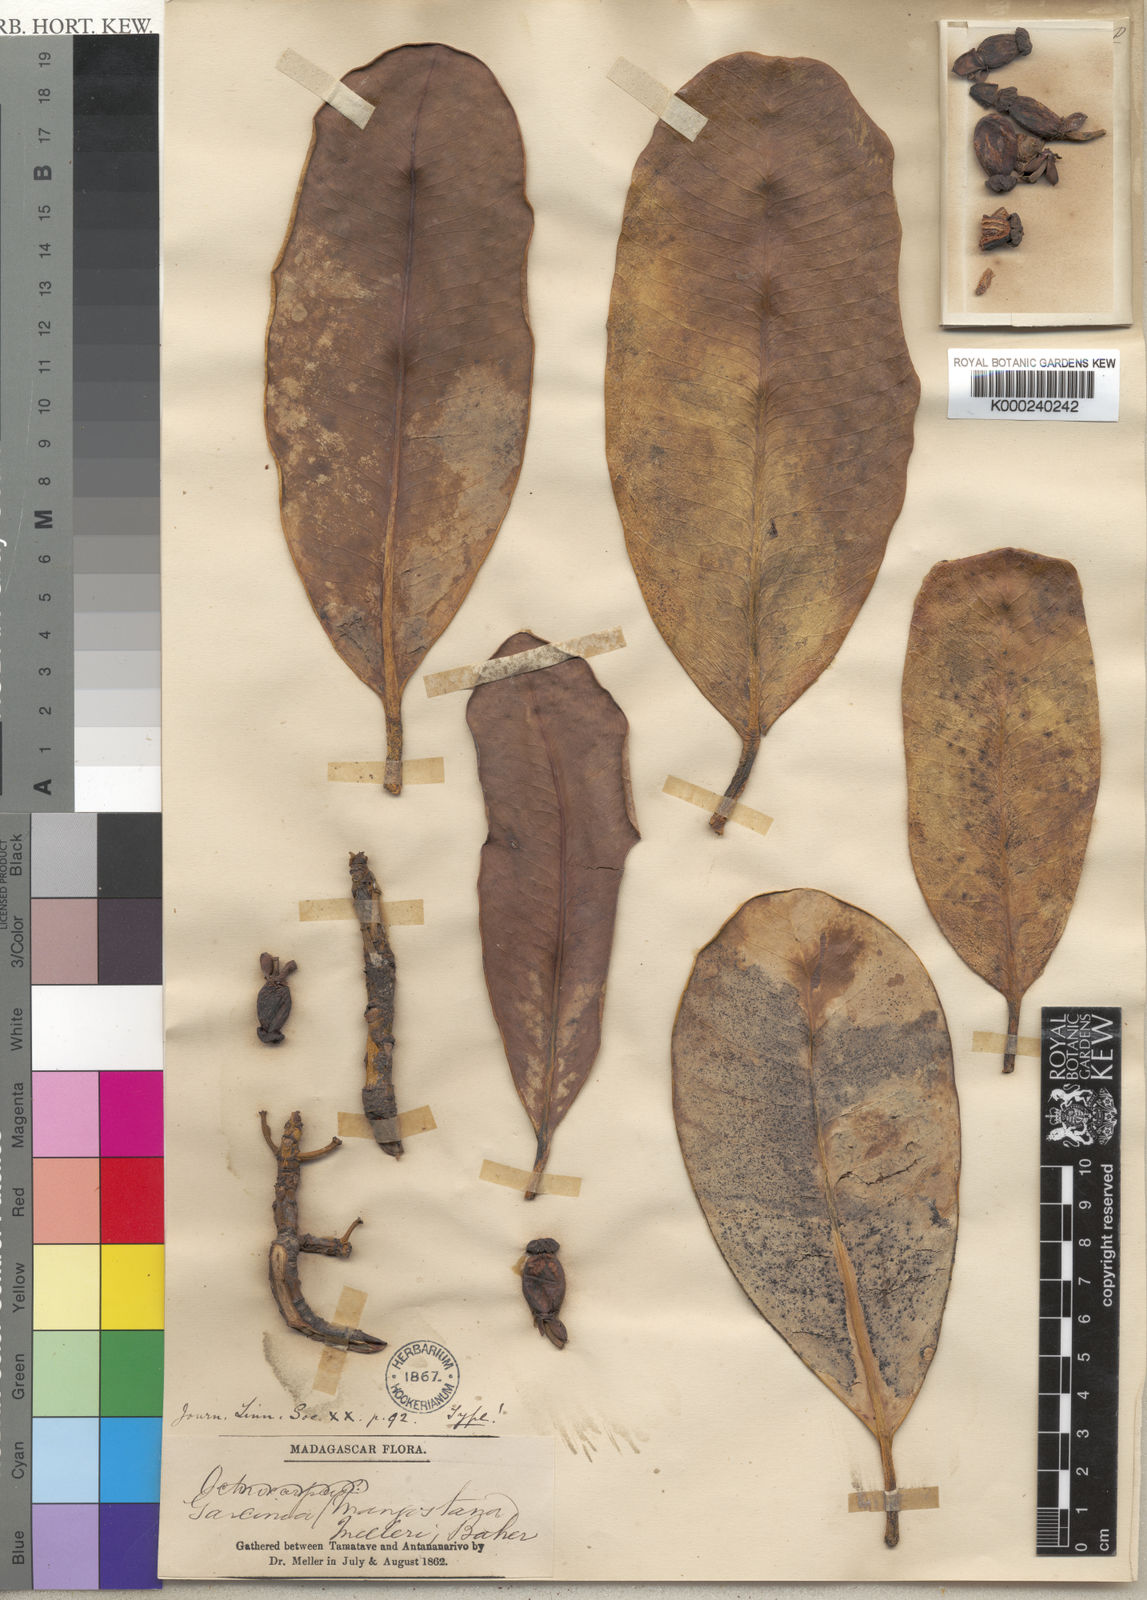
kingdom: Plantae
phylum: Tracheophyta
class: Magnoliopsida
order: Malpighiales
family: Clusiaceae
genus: Garcinia
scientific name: Garcinia goudotiana
